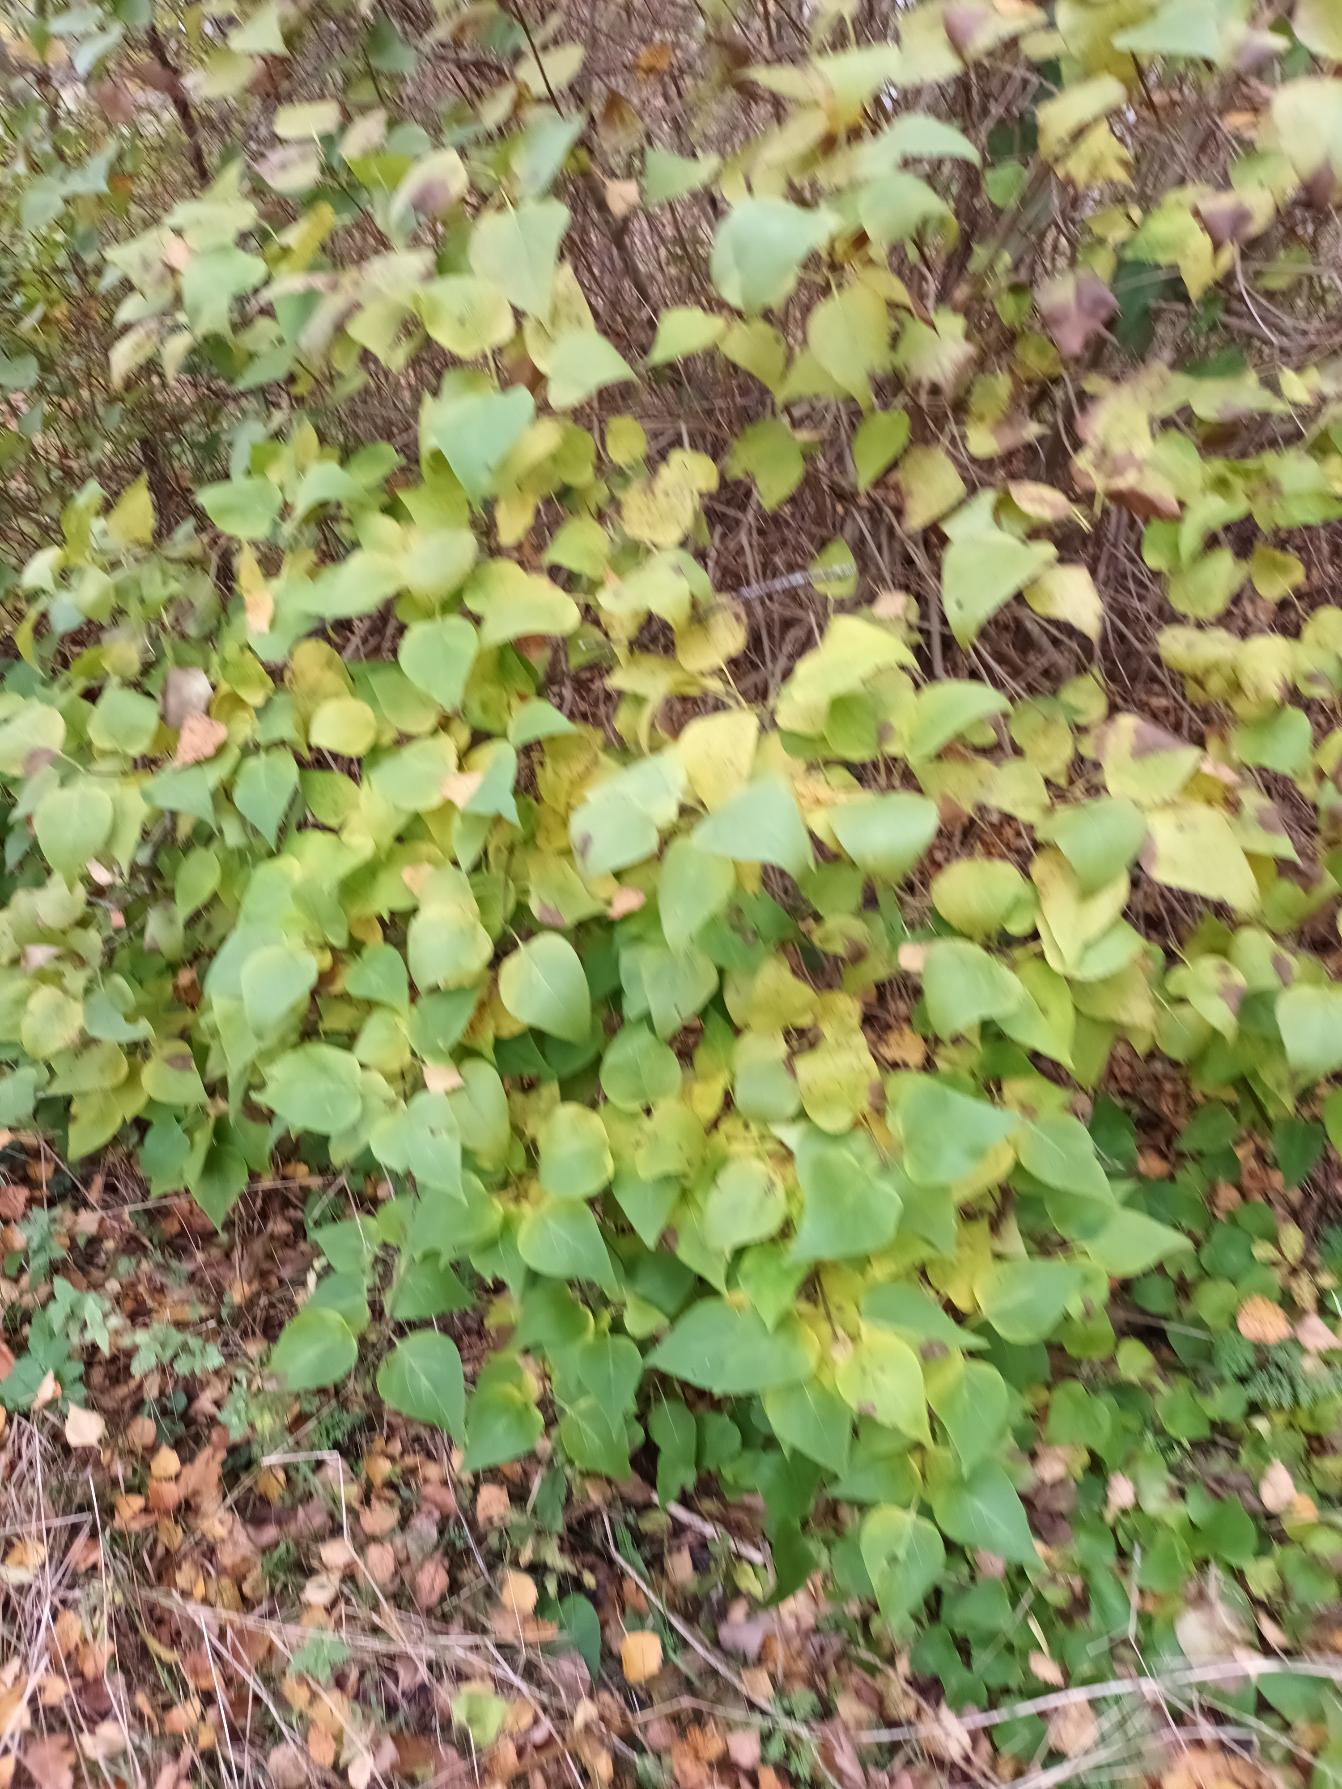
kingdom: Plantae
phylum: Tracheophyta
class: Magnoliopsida
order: Lamiales
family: Oleaceae
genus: Syringa
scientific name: Syringa vulgaris
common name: Syren
